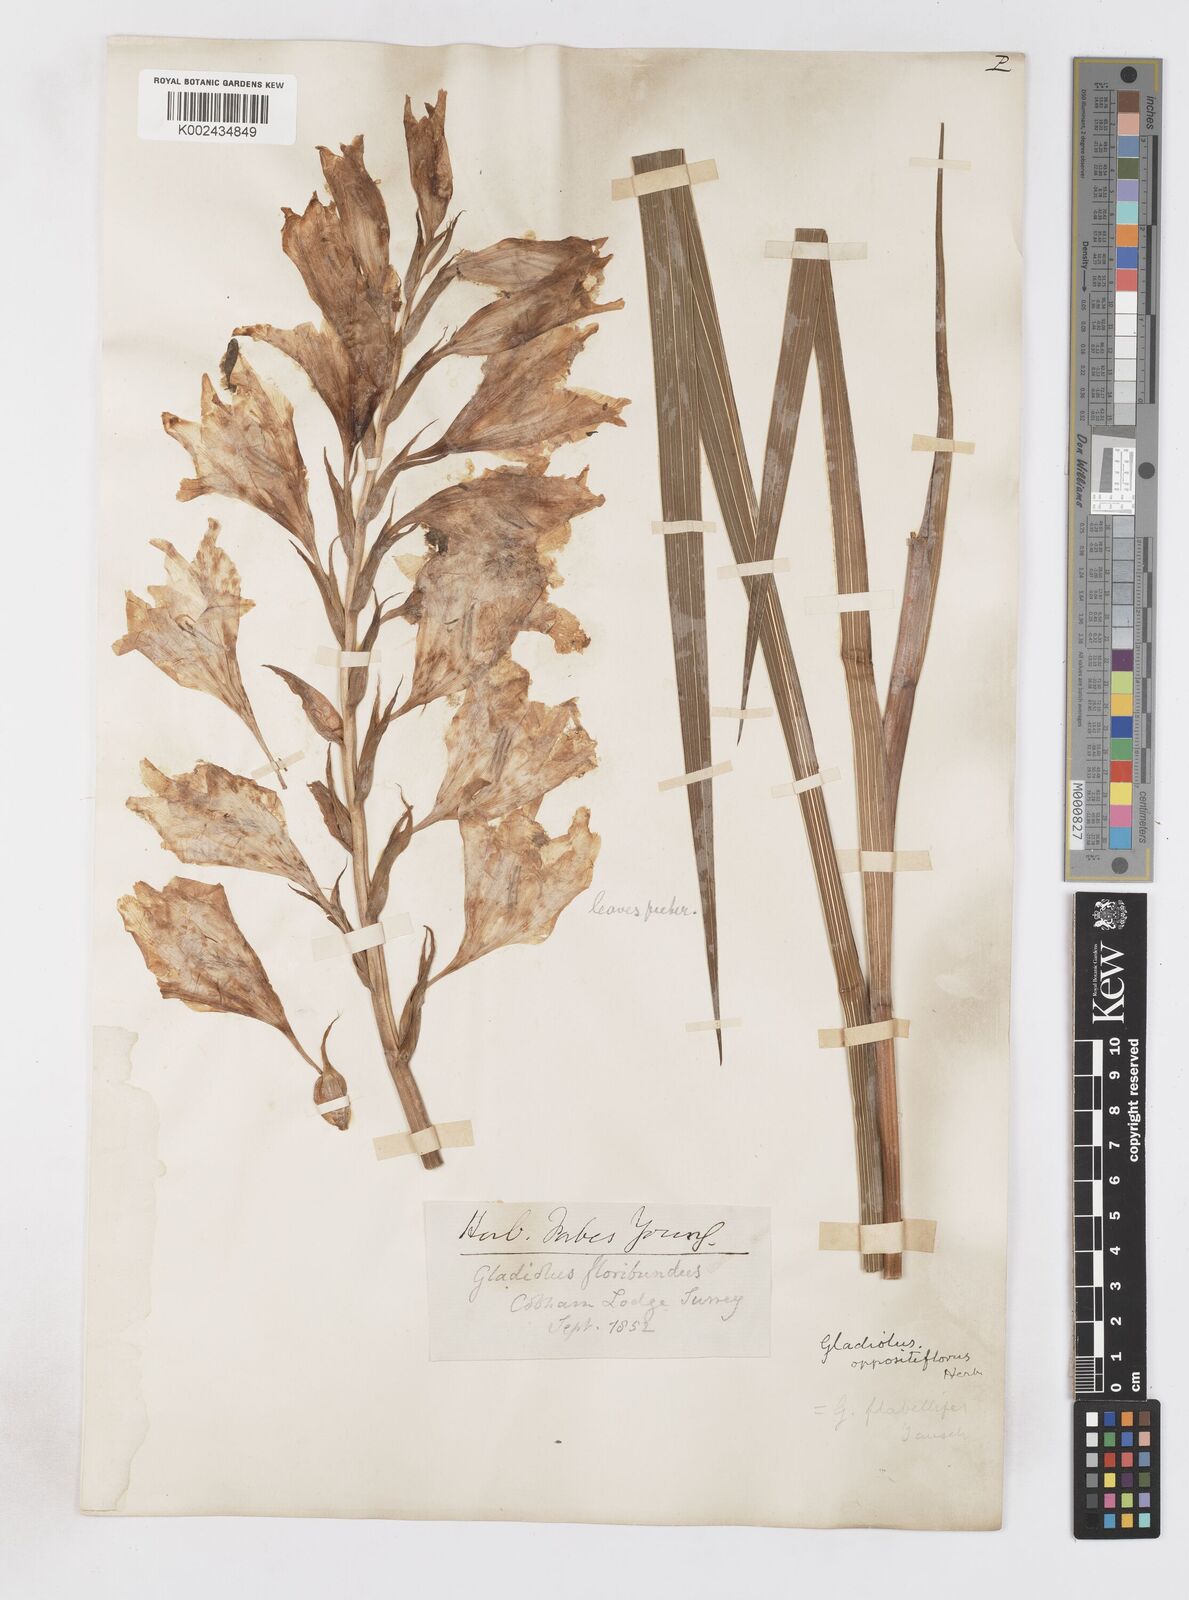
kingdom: Plantae
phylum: Tracheophyta
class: Liliopsida
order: Asparagales
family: Iridaceae
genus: Gladiolus
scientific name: Gladiolus oppositiflorus
